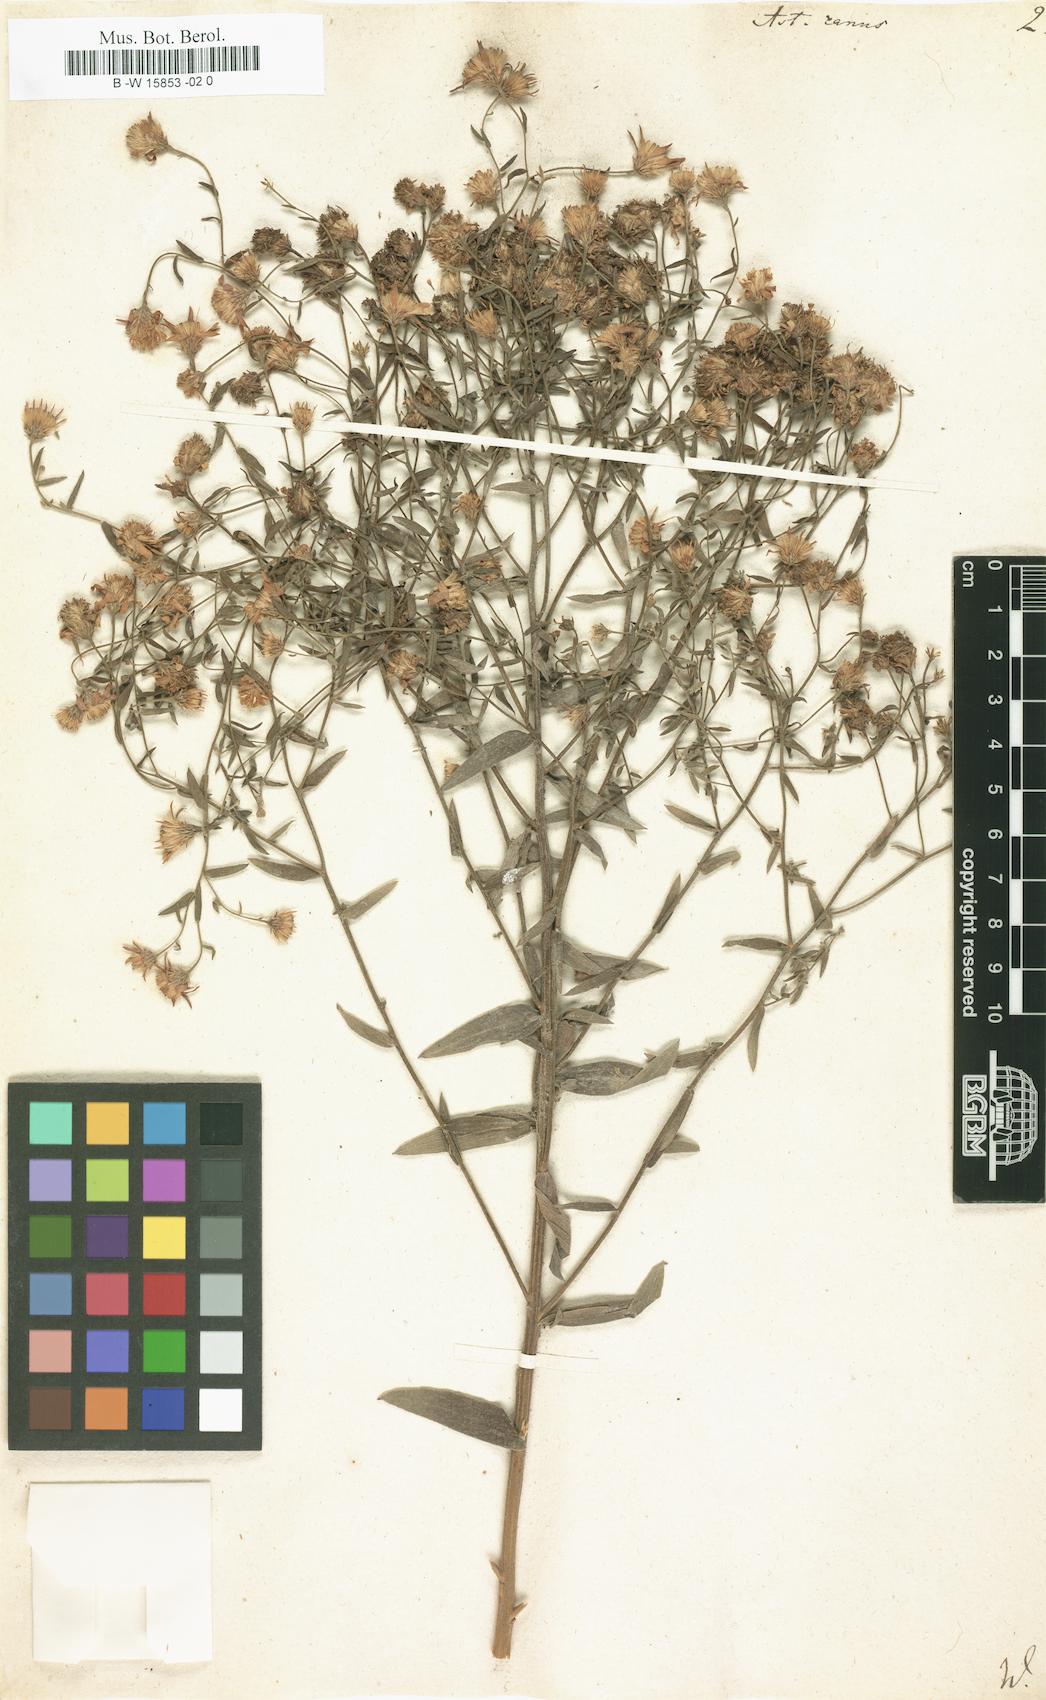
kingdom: Plantae
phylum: Tracheophyta
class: Magnoliopsida
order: Asterales
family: Asteraceae
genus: Galatella
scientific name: Galatella cana
